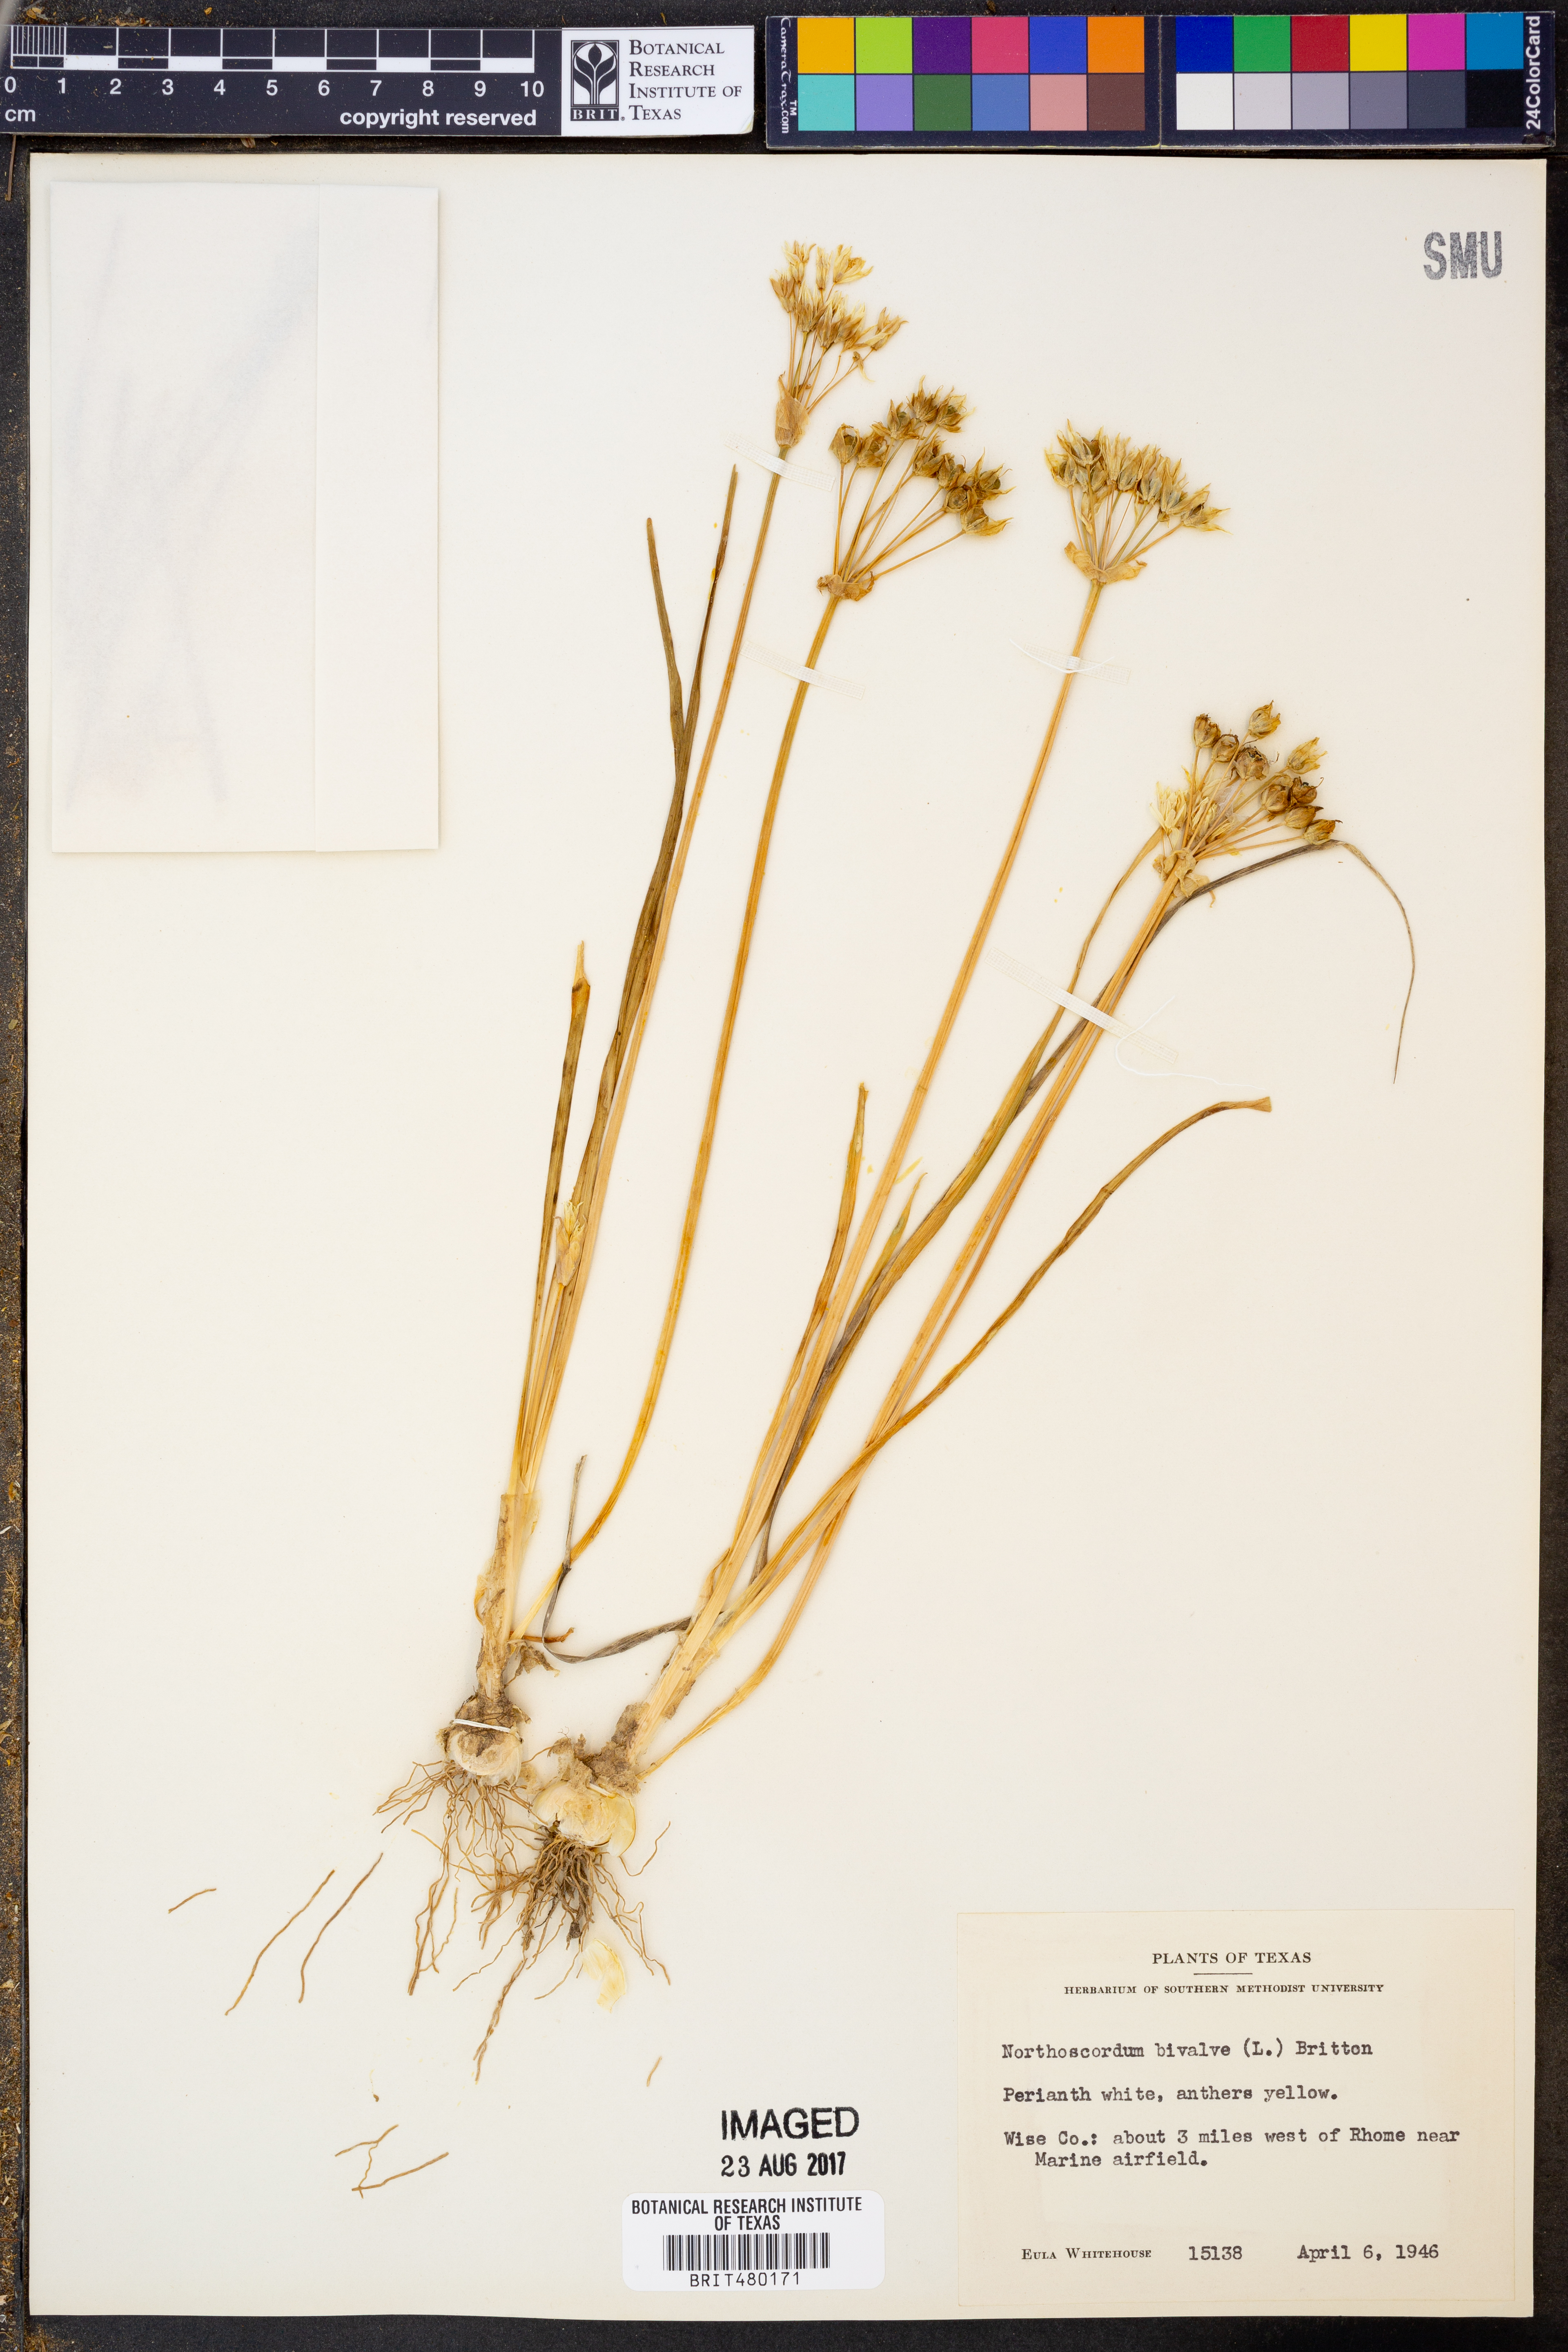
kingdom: Plantae
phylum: Tracheophyta
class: Liliopsida
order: Asparagales
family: Amaryllidaceae
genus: Nothoscordum
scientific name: Nothoscordum bivalve
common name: Crow-poison
